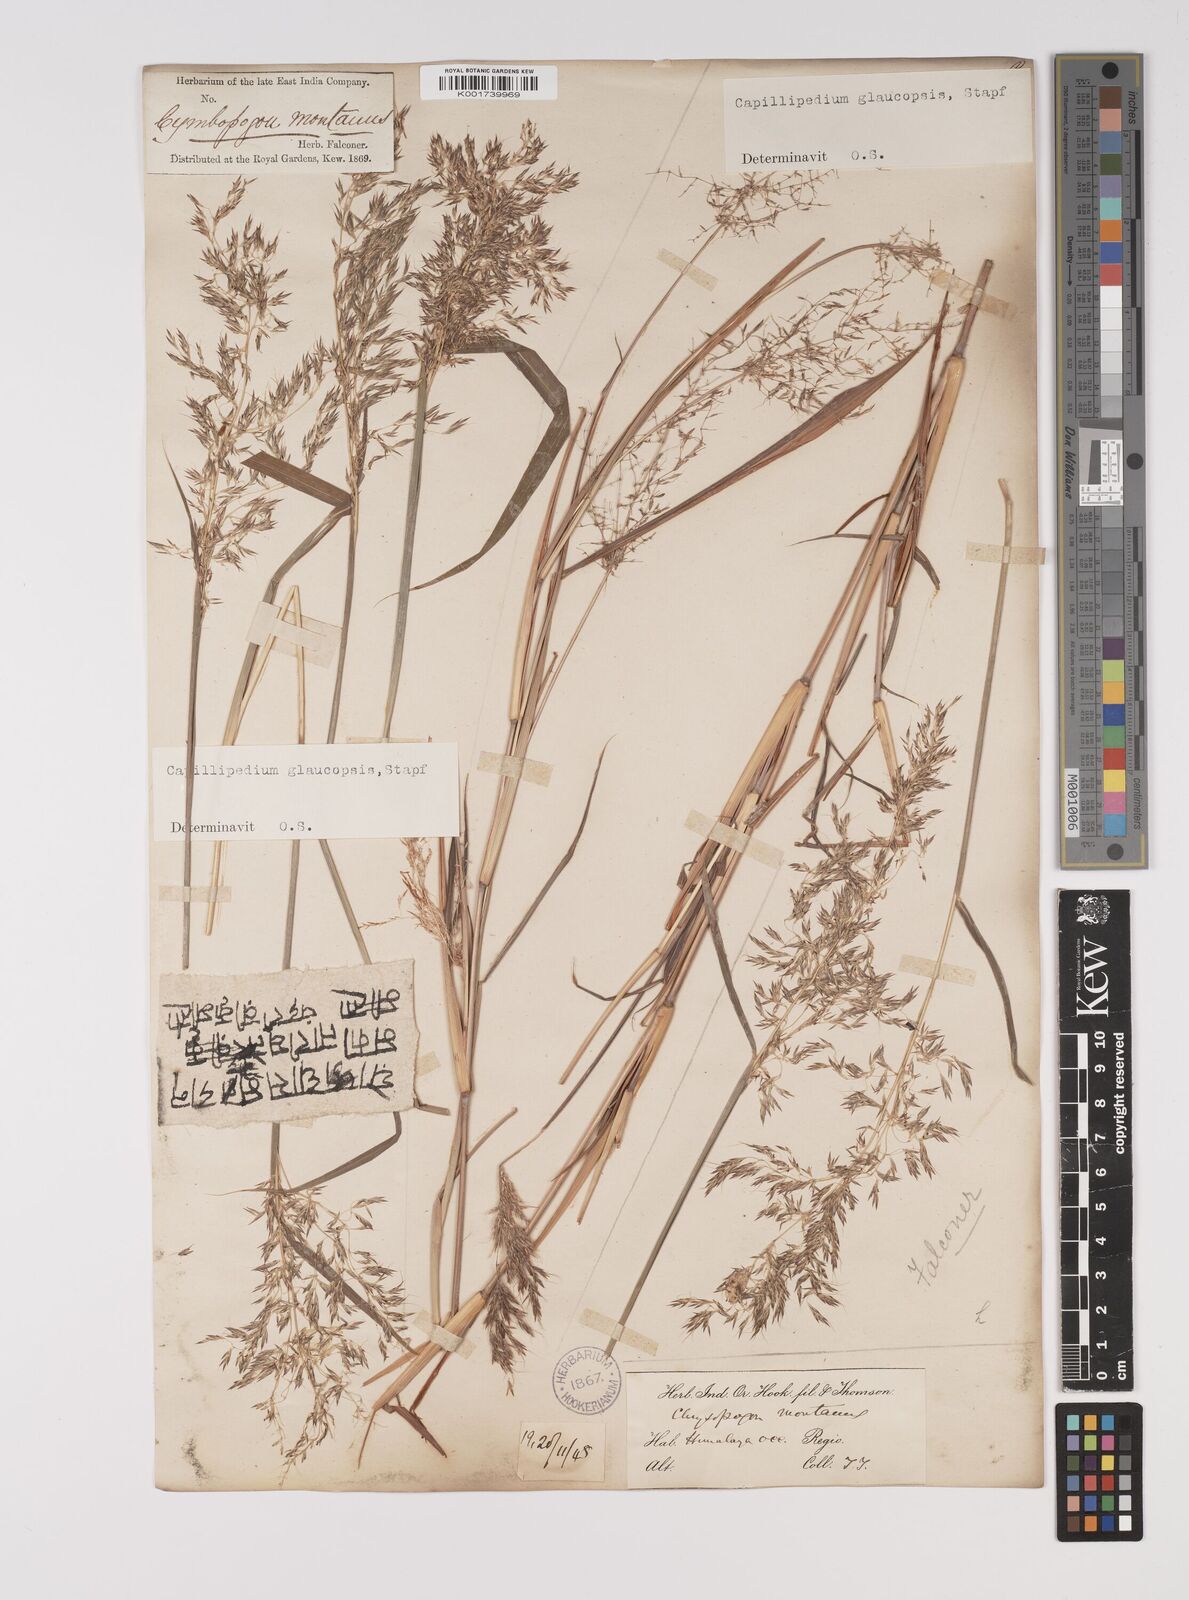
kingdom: Plantae
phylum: Tracheophyta
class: Liliopsida
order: Poales
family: Poaceae
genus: Capillipedium
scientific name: Capillipedium assimile
